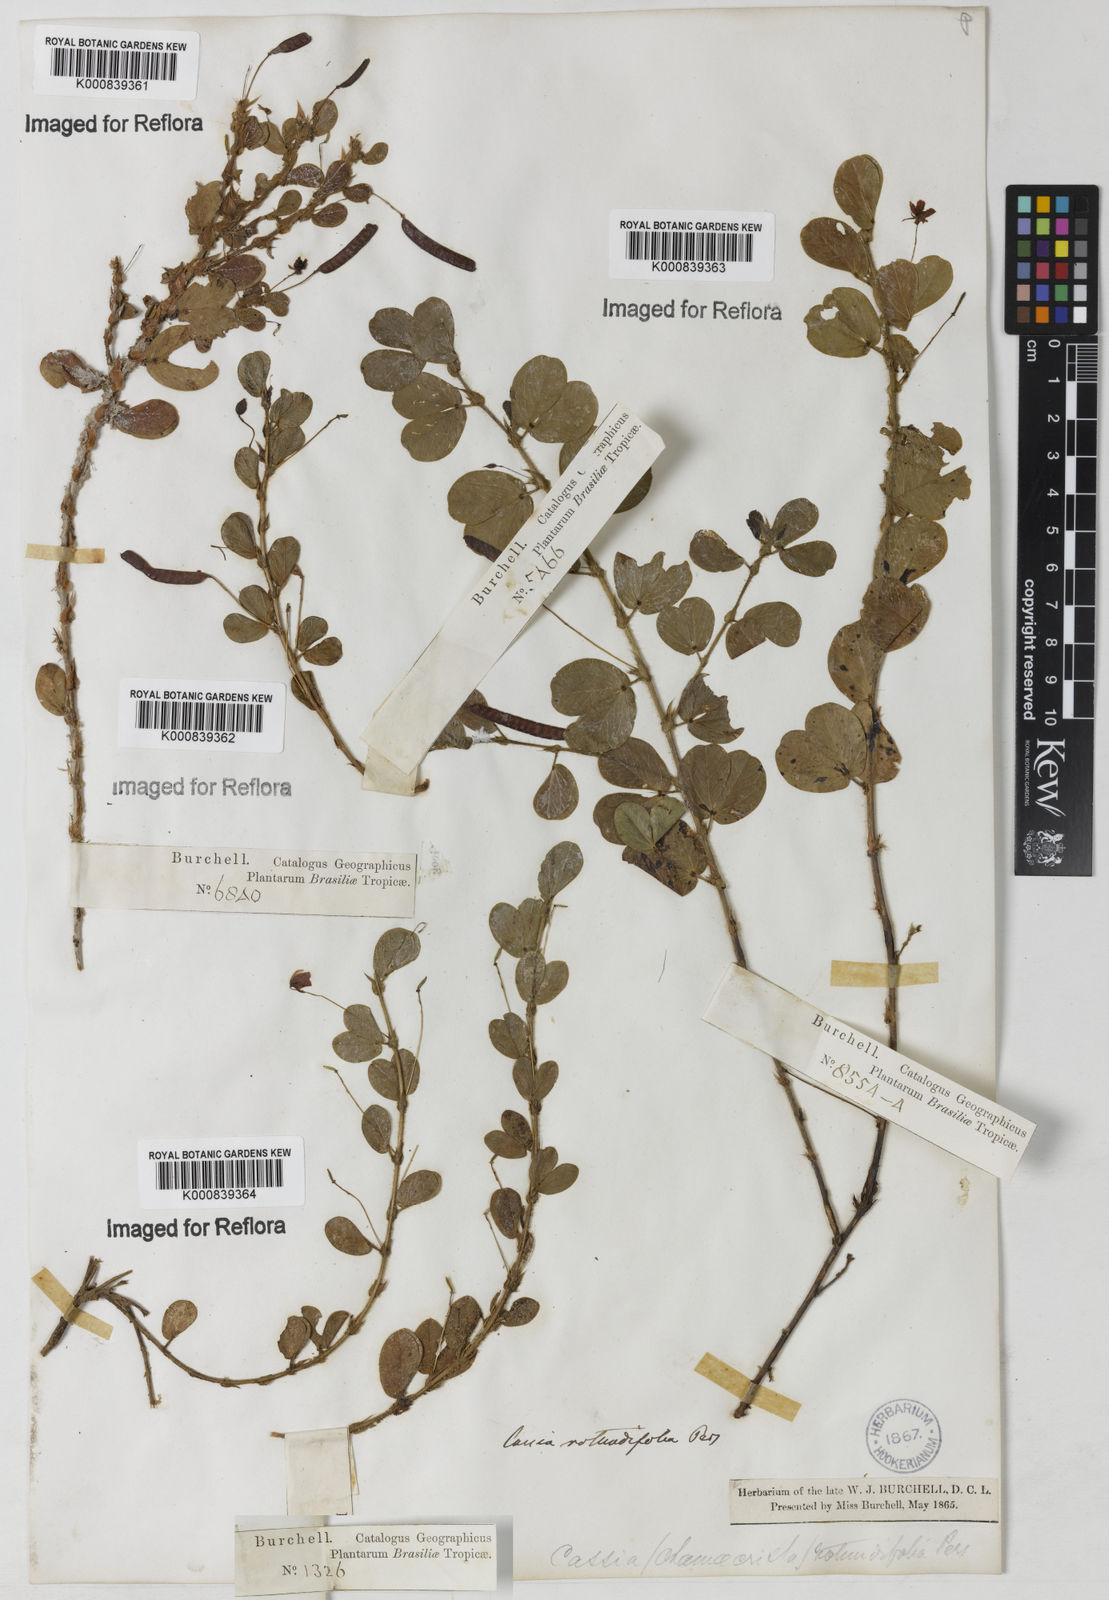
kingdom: Plantae
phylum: Tracheophyta
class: Magnoliopsida
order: Fabales
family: Fabaceae
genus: Chamaecrista
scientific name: Chamaecrista rotundifolia
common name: Round-leaf cassia
